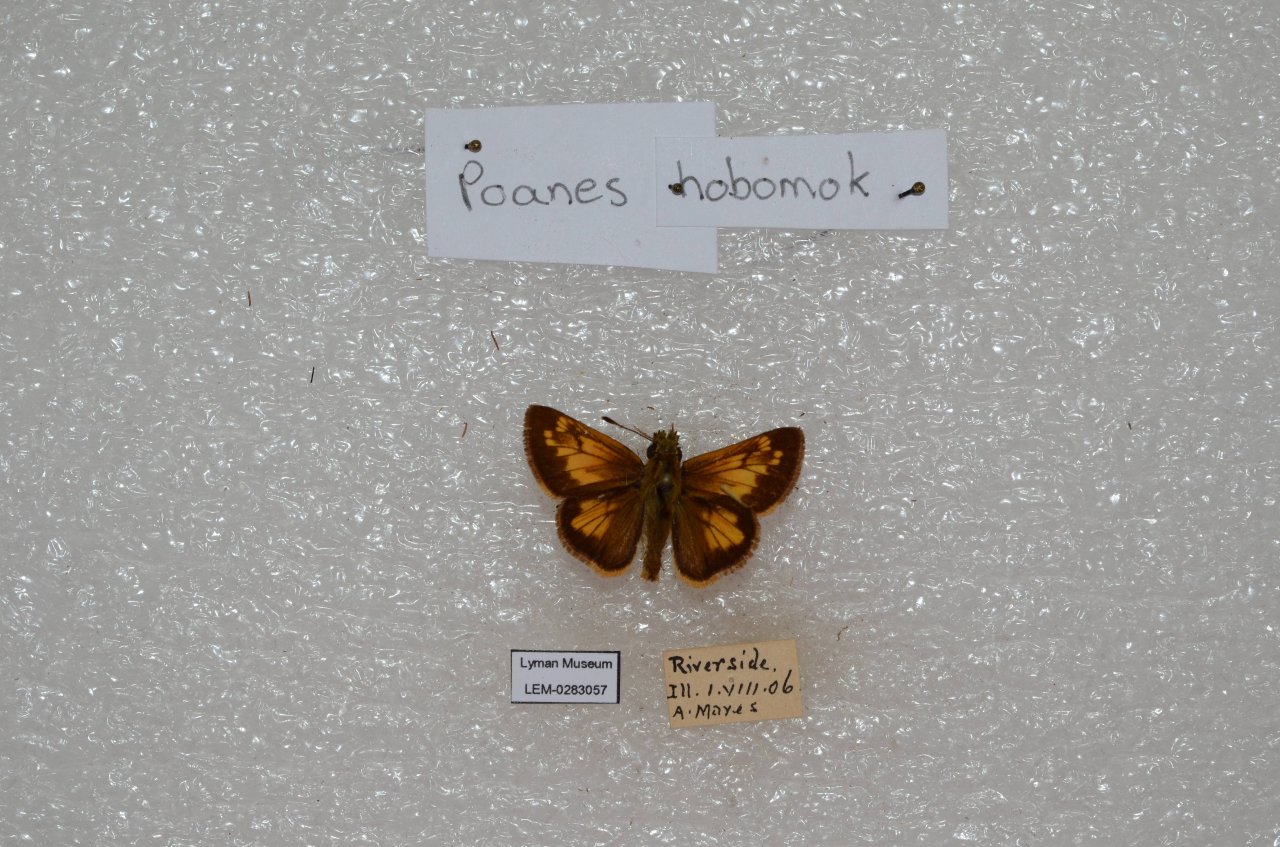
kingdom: Animalia
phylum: Arthropoda
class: Insecta
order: Lepidoptera
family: Hesperiidae
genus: Lon
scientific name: Lon hobomok
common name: Hobomok Skipper
